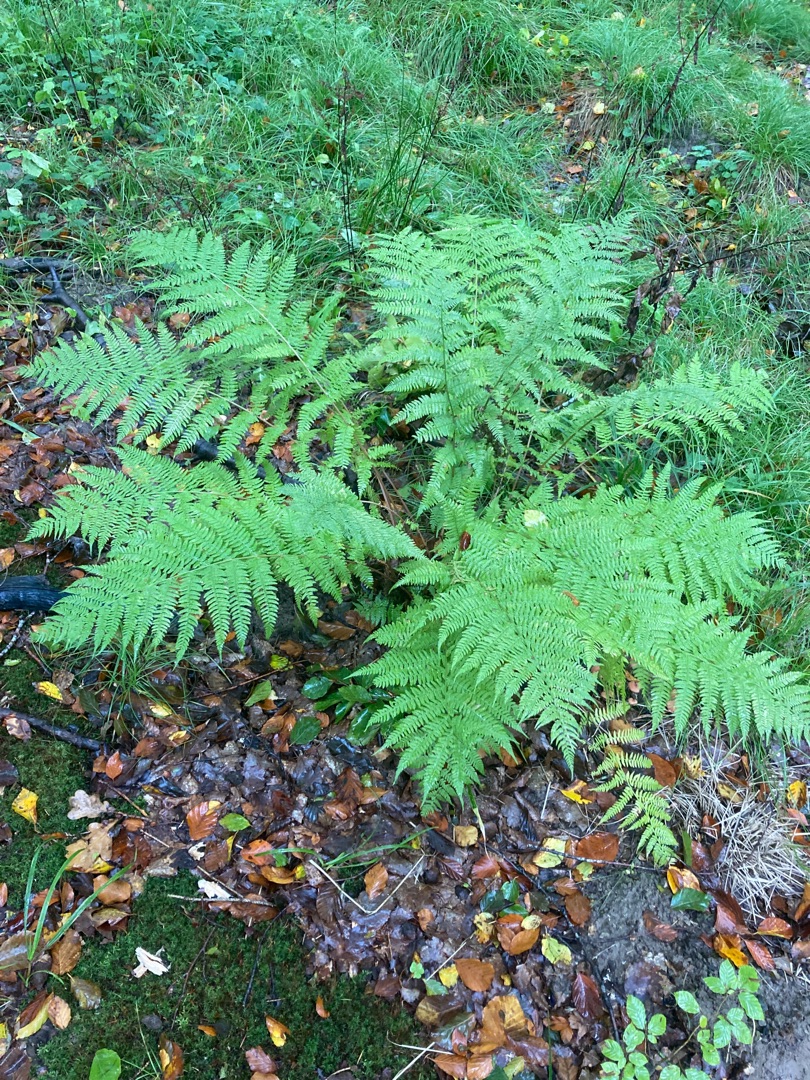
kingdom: Plantae
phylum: Tracheophyta
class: Polypodiopsida
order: Polypodiales
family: Athyriaceae
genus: Athyrium
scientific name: Athyrium filix-femina
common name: Fjerbregne
